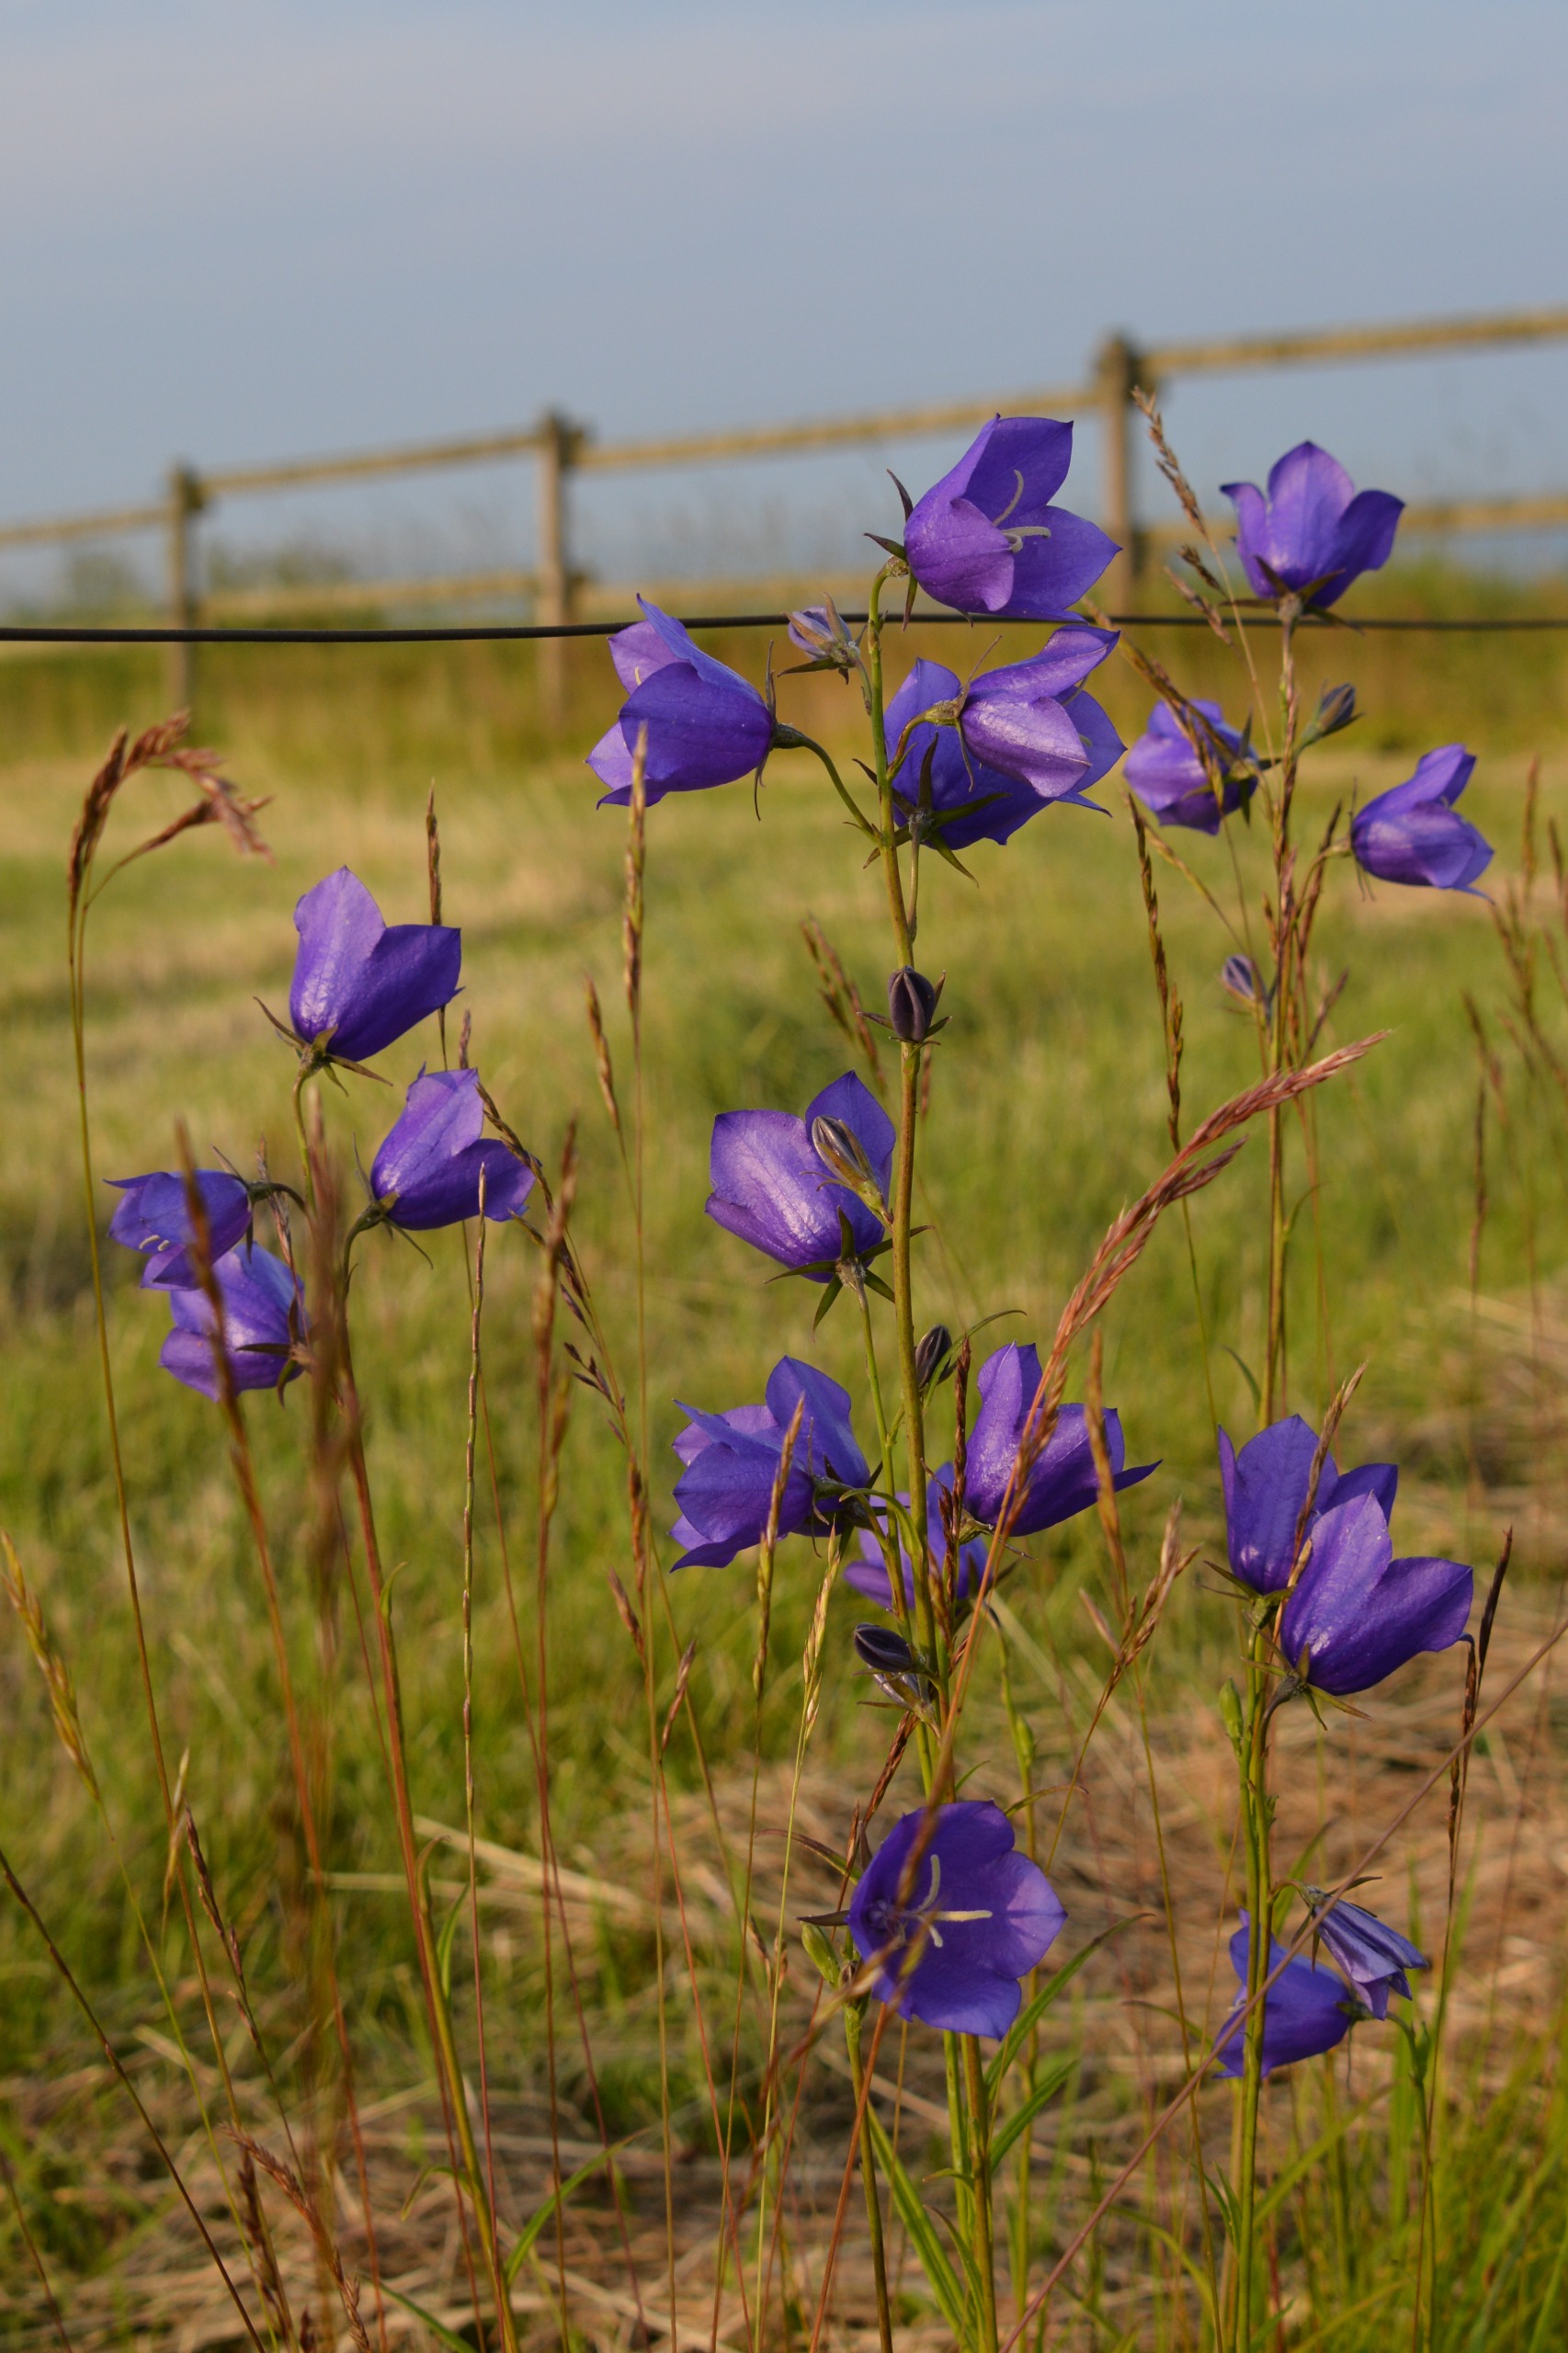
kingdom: Plantae
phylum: Tracheophyta
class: Magnoliopsida
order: Asterales
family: Campanulaceae
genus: Campanula
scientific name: Campanula persicifolia
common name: Smalbladet klokke
